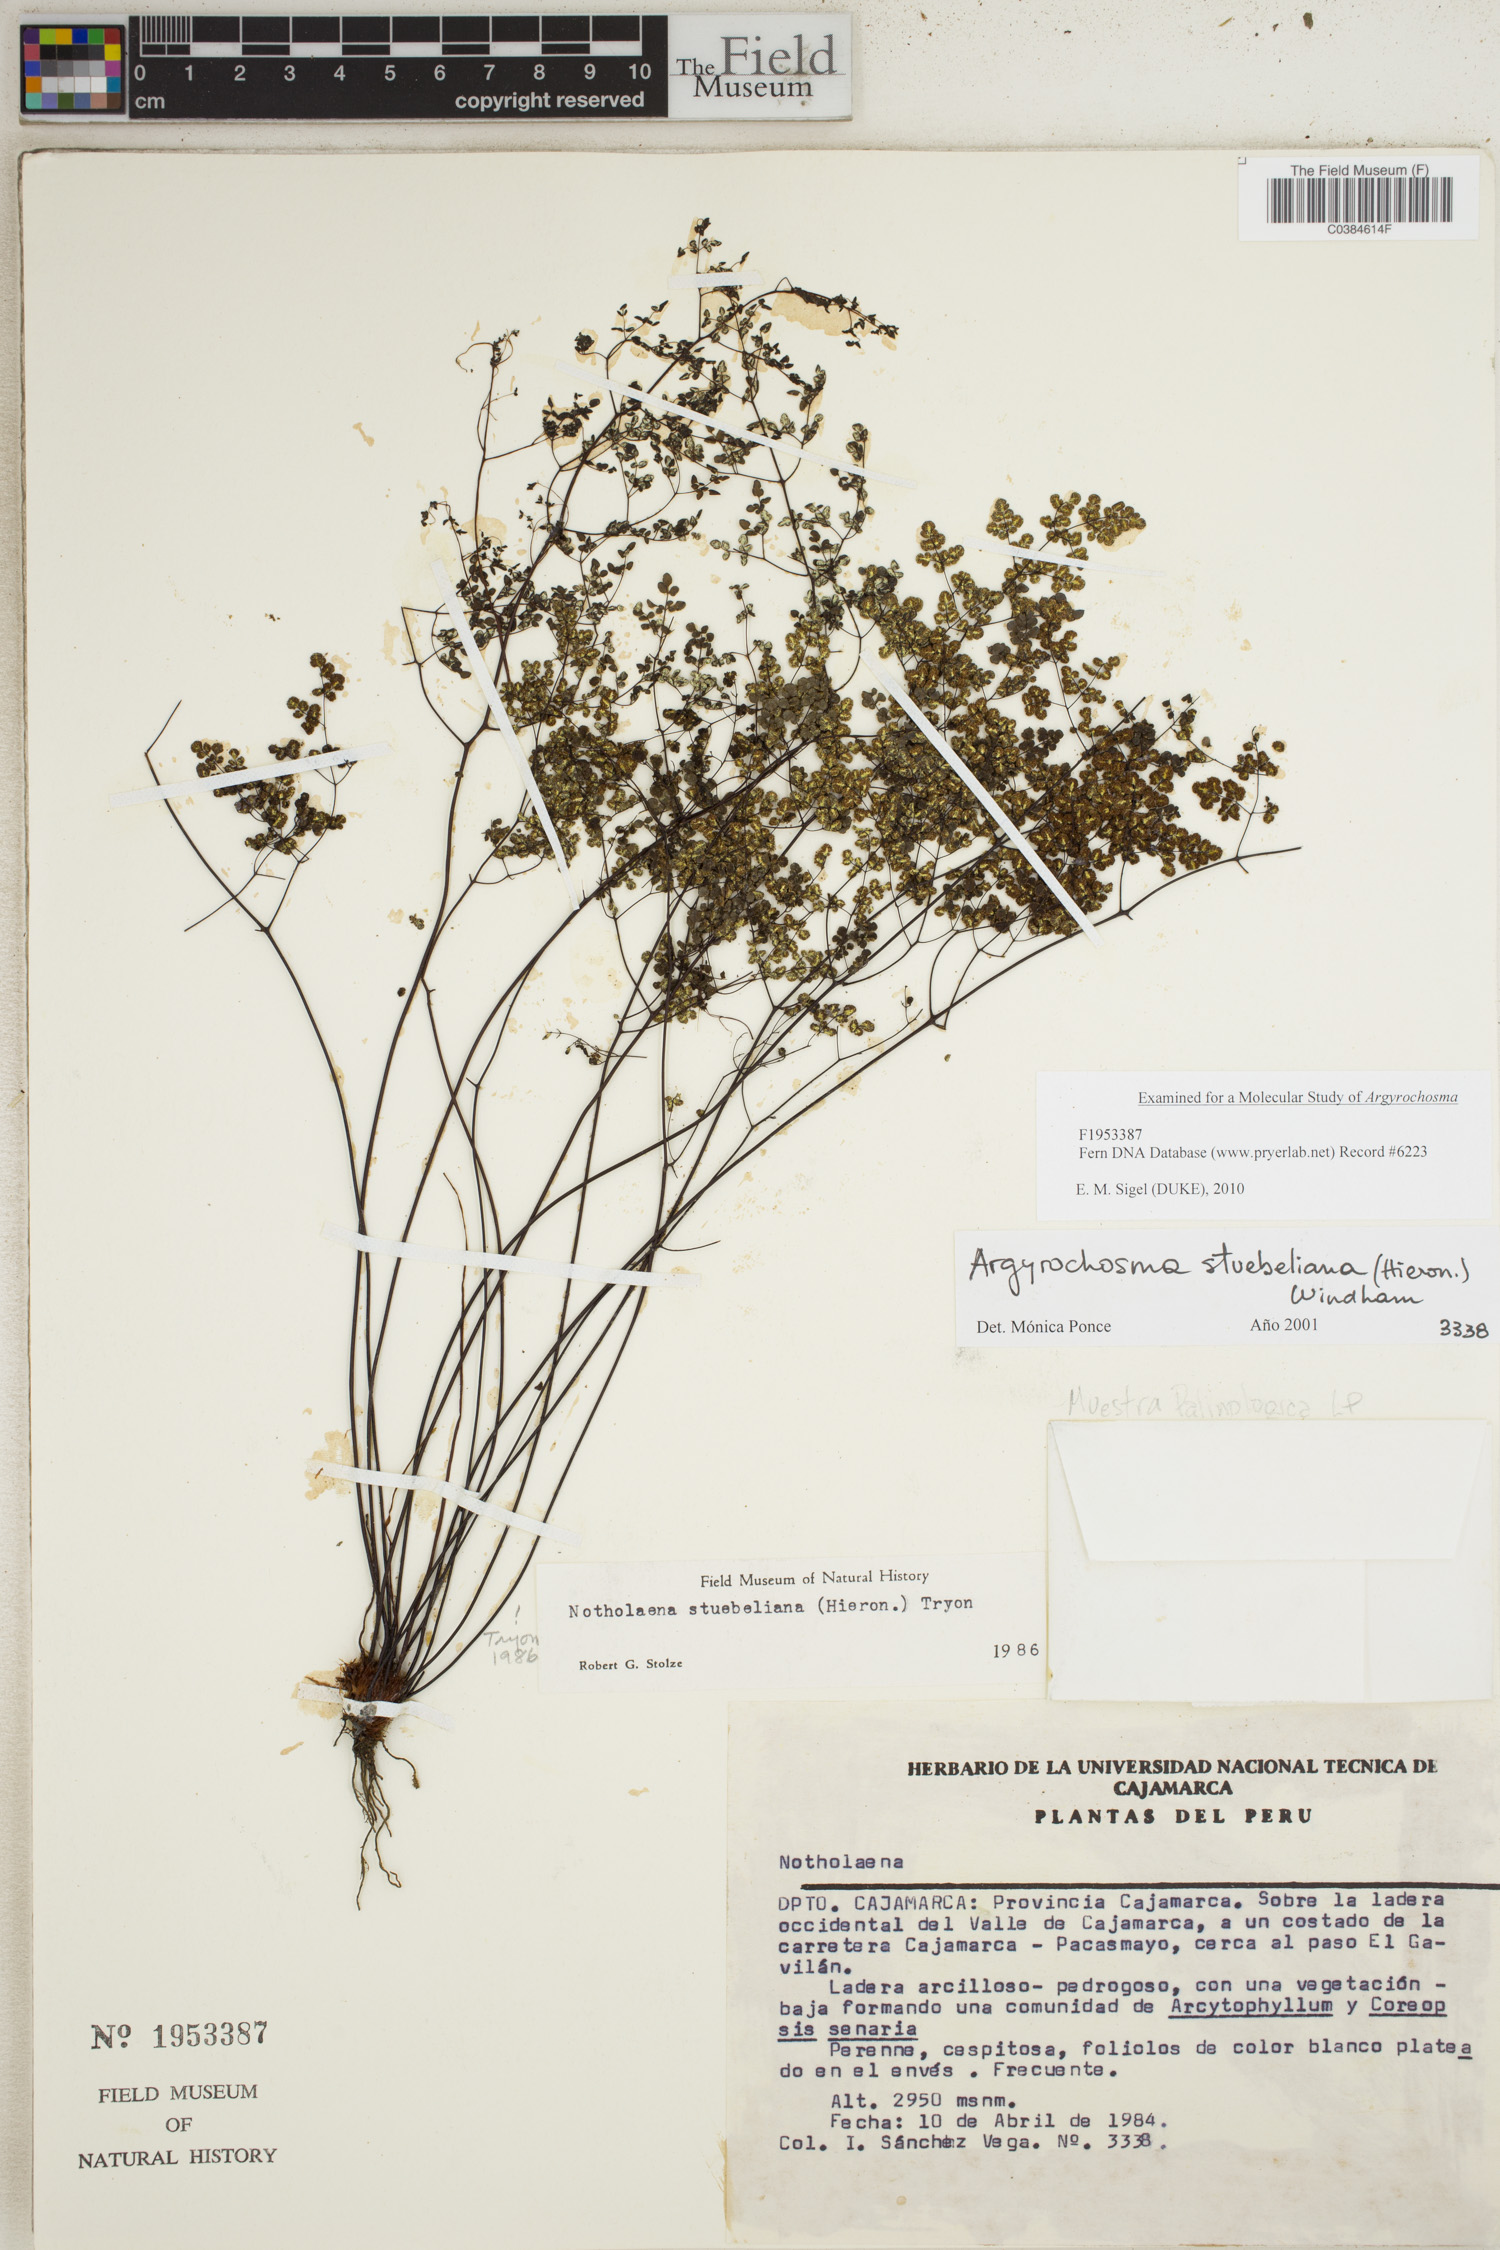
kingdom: Plantae
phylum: Tracheophyta
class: Polypodiopsida
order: Polypodiales
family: Pteridaceae
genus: Argyrochosma
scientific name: Argyrochosma stuebeliana
